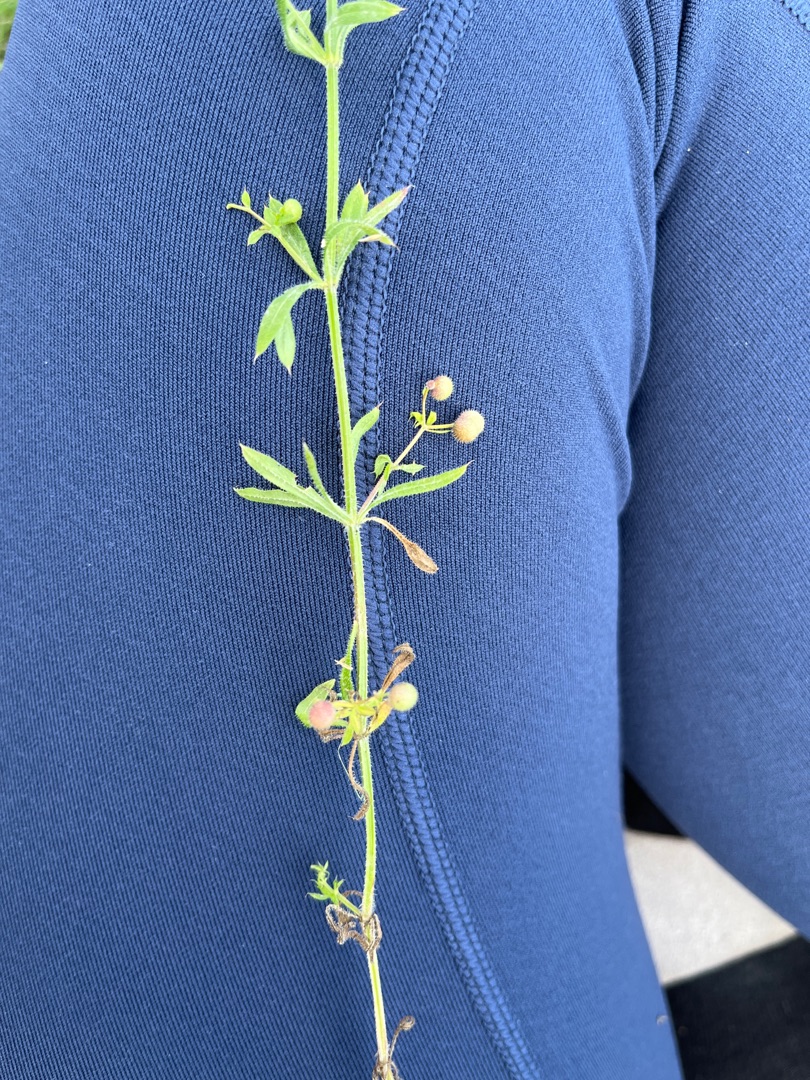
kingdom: Plantae
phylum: Tracheophyta
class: Magnoliopsida
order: Gentianales
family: Rubiaceae
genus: Galium
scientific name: Galium aparine
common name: Burre-snerre
